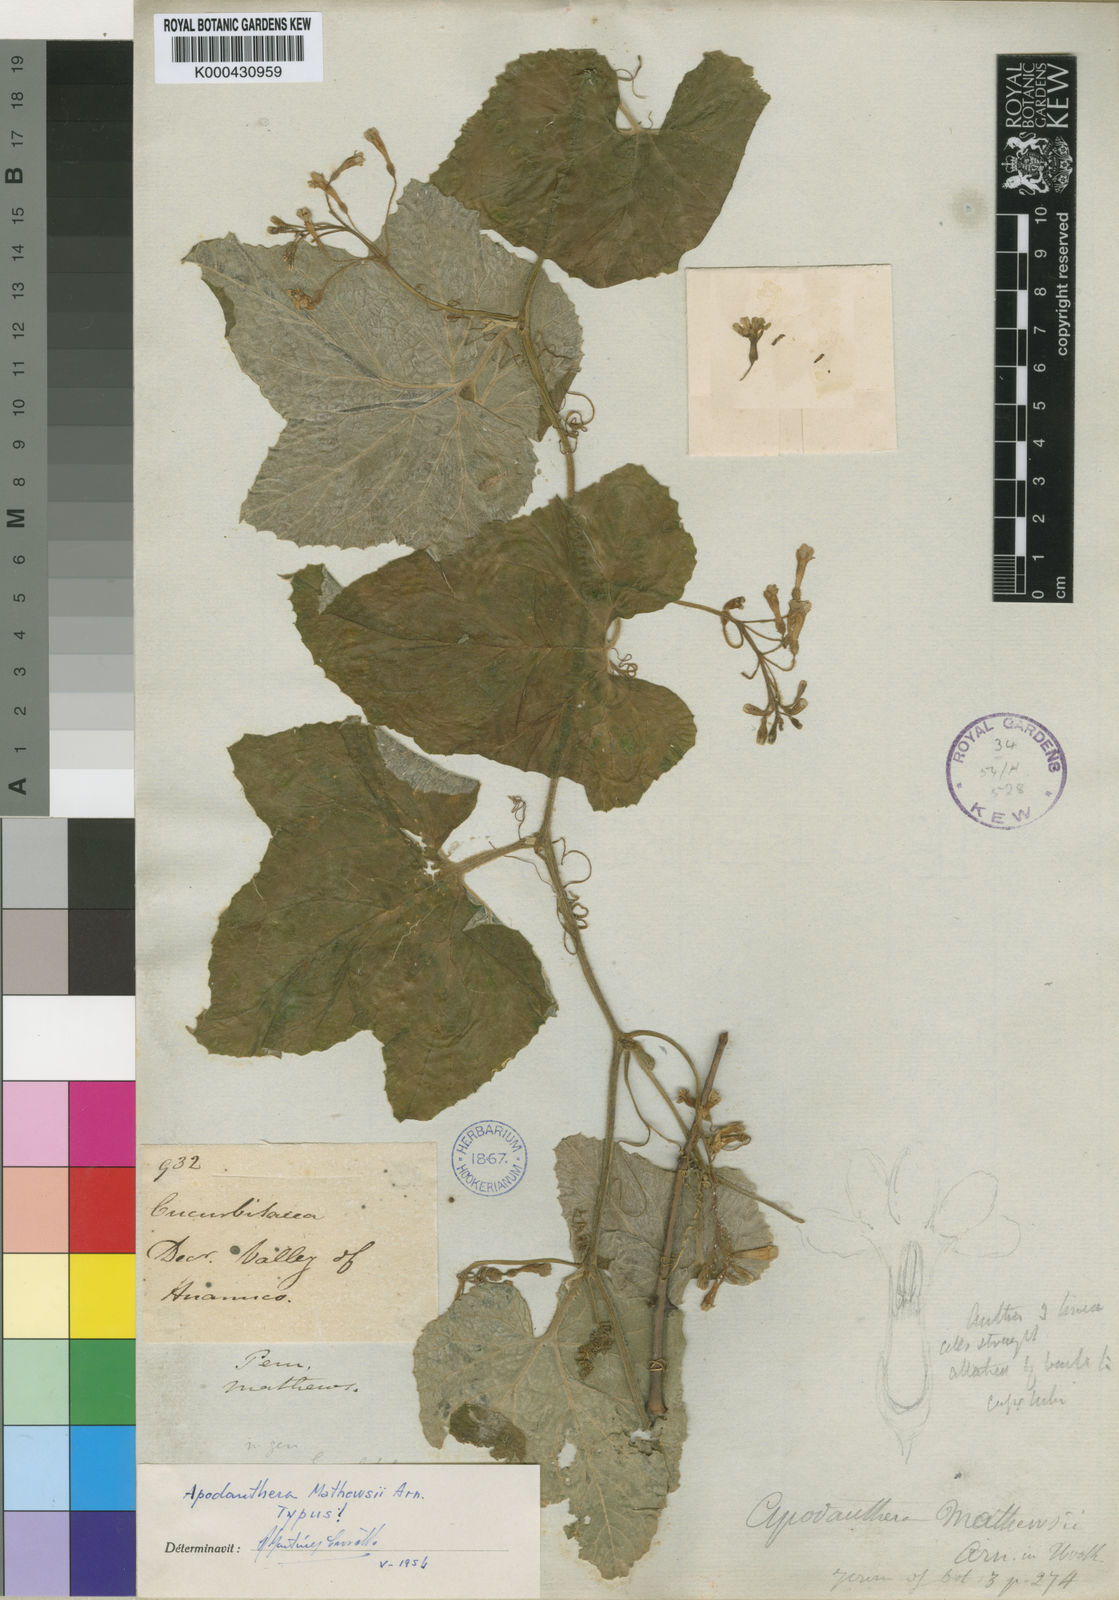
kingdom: Plantae
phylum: Tracheophyta
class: Magnoliopsida
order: Cucurbitales
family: Cucurbitaceae
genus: Apodanthera
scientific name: Apodanthera
